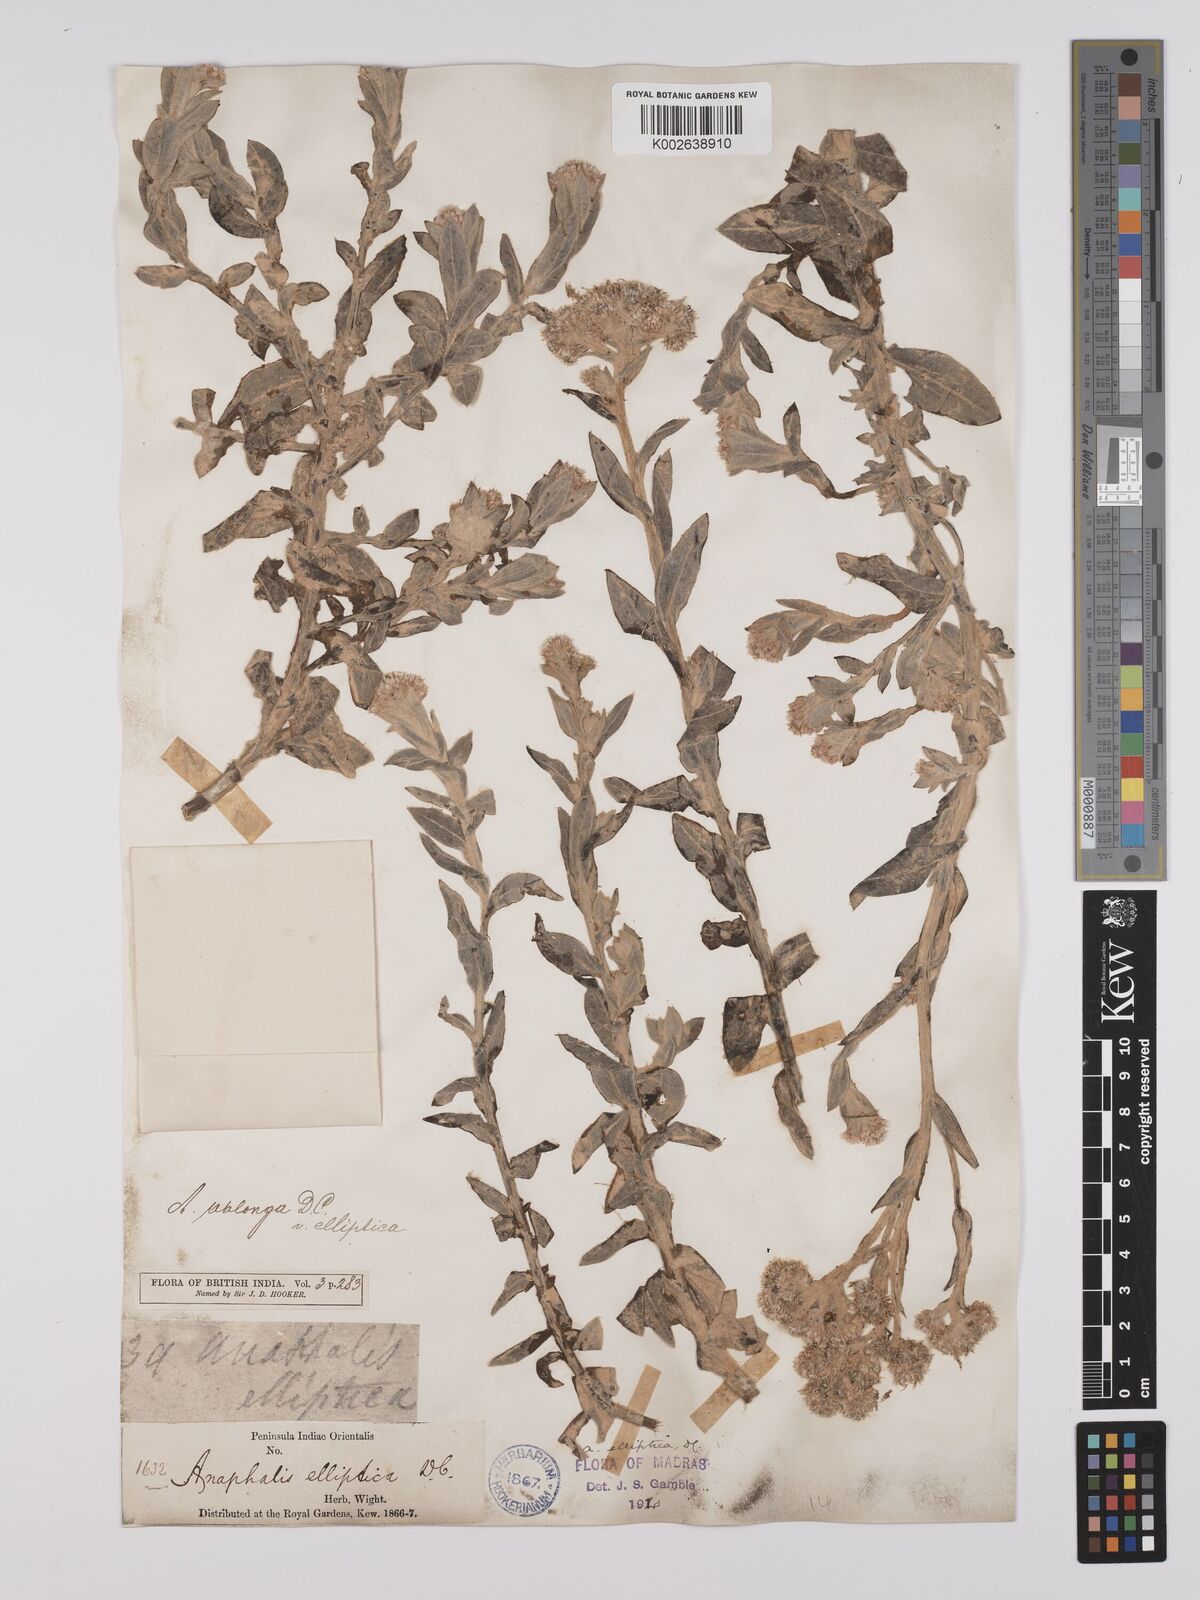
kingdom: Plantae
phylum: Tracheophyta
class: Magnoliopsida
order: Asterales
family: Asteraceae
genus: Anaphalis
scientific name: Anaphalis elliptica
